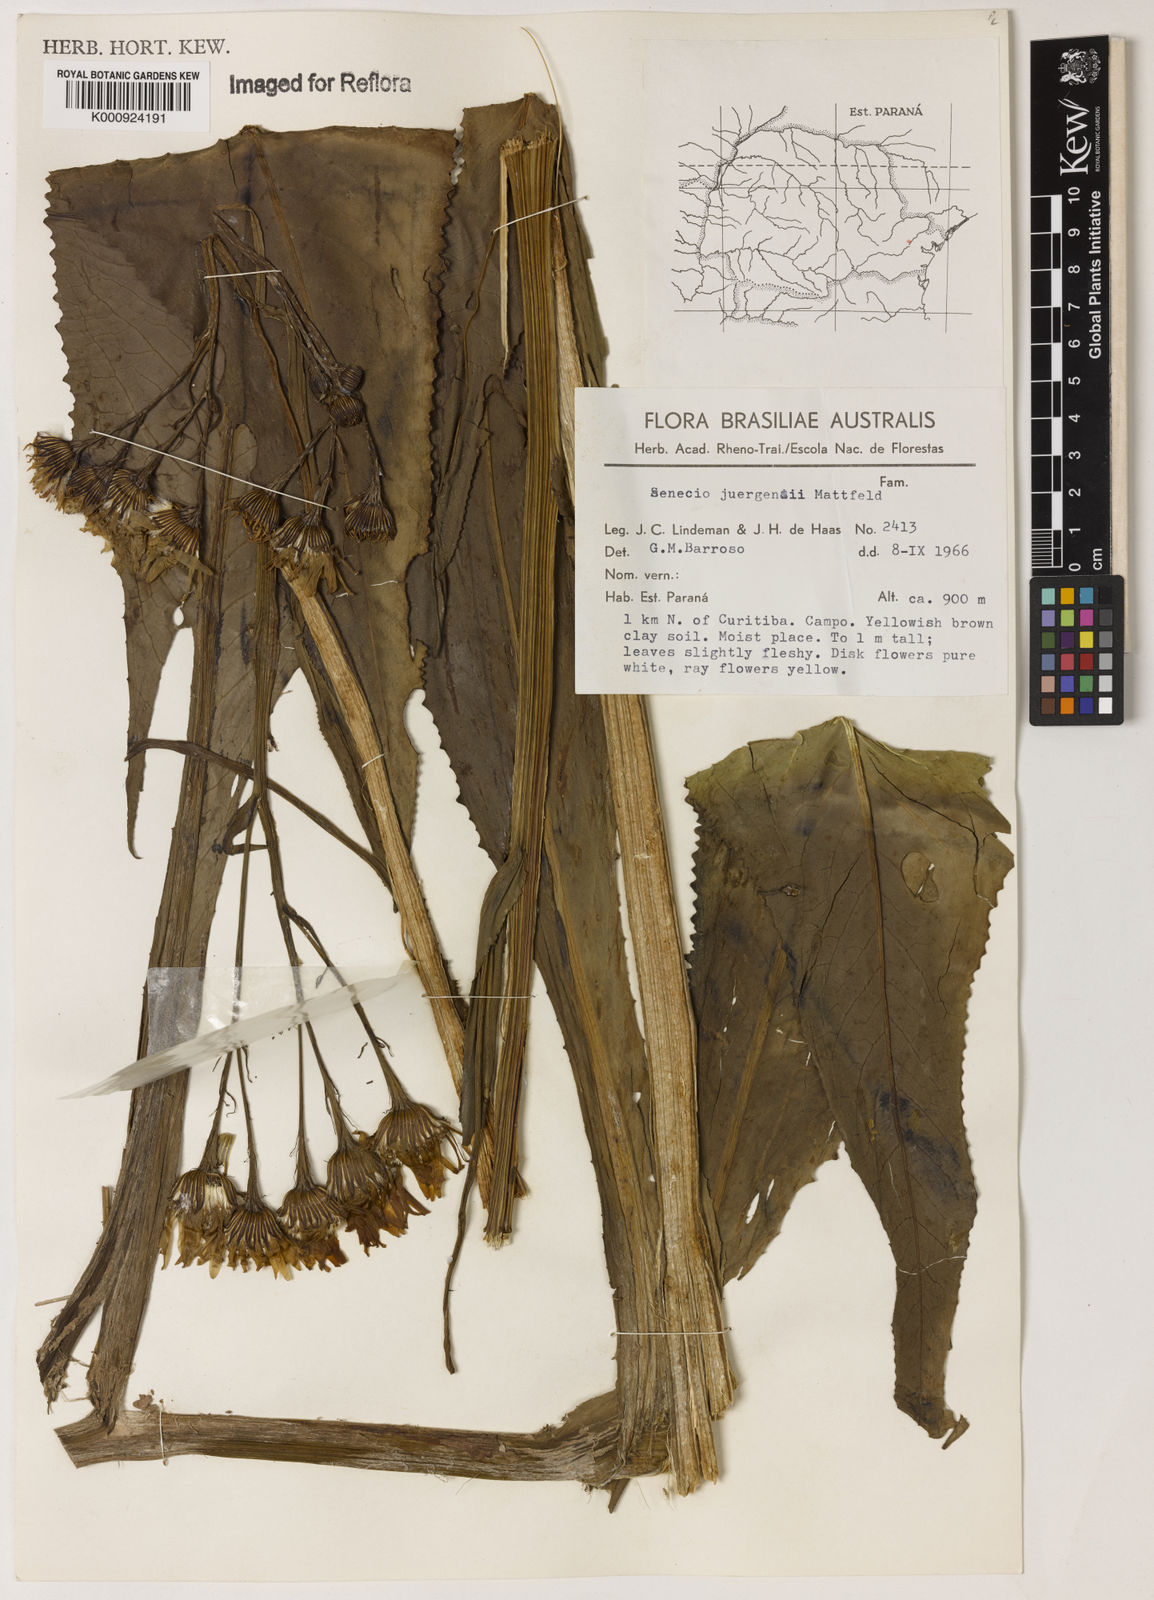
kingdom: Plantae
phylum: Tracheophyta
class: Magnoliopsida
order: Asterales
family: Asteraceae
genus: Senecio
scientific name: Senecio juergensii
